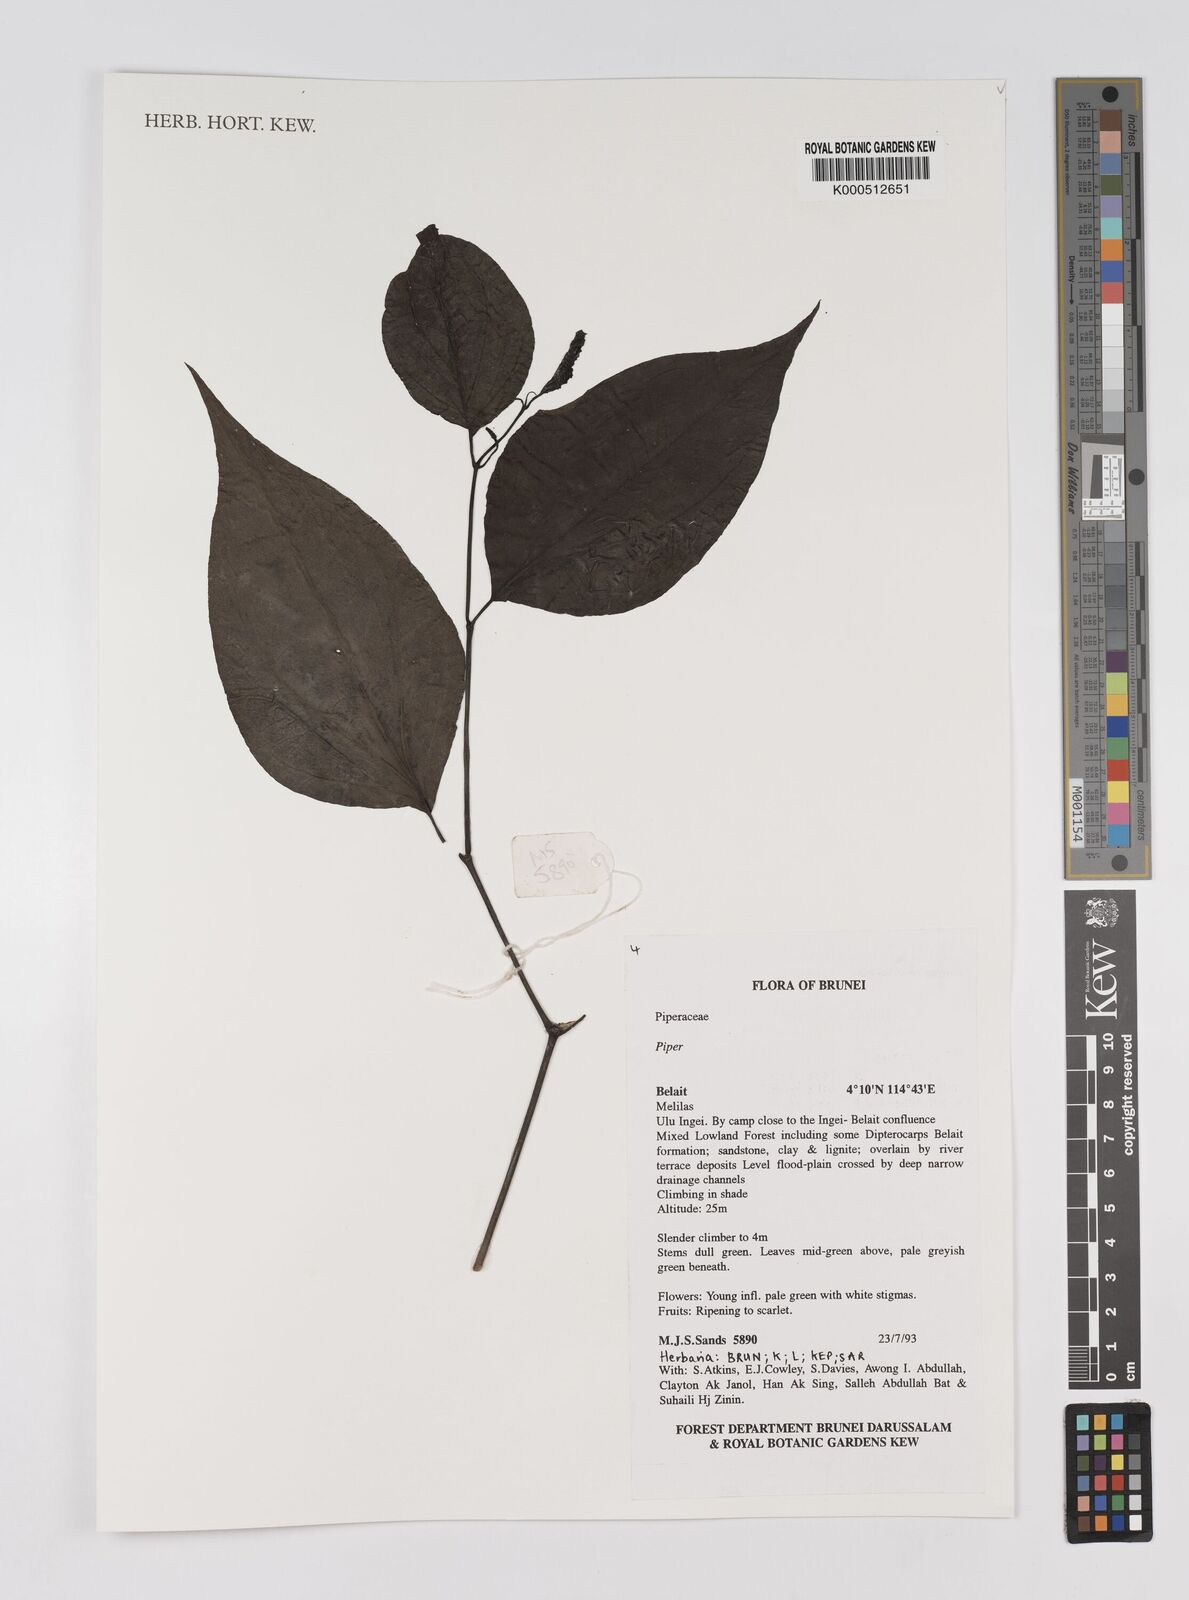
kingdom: Plantae
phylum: Tracheophyta
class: Magnoliopsida
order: Piperales
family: Piperaceae
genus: Piper
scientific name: Piper
